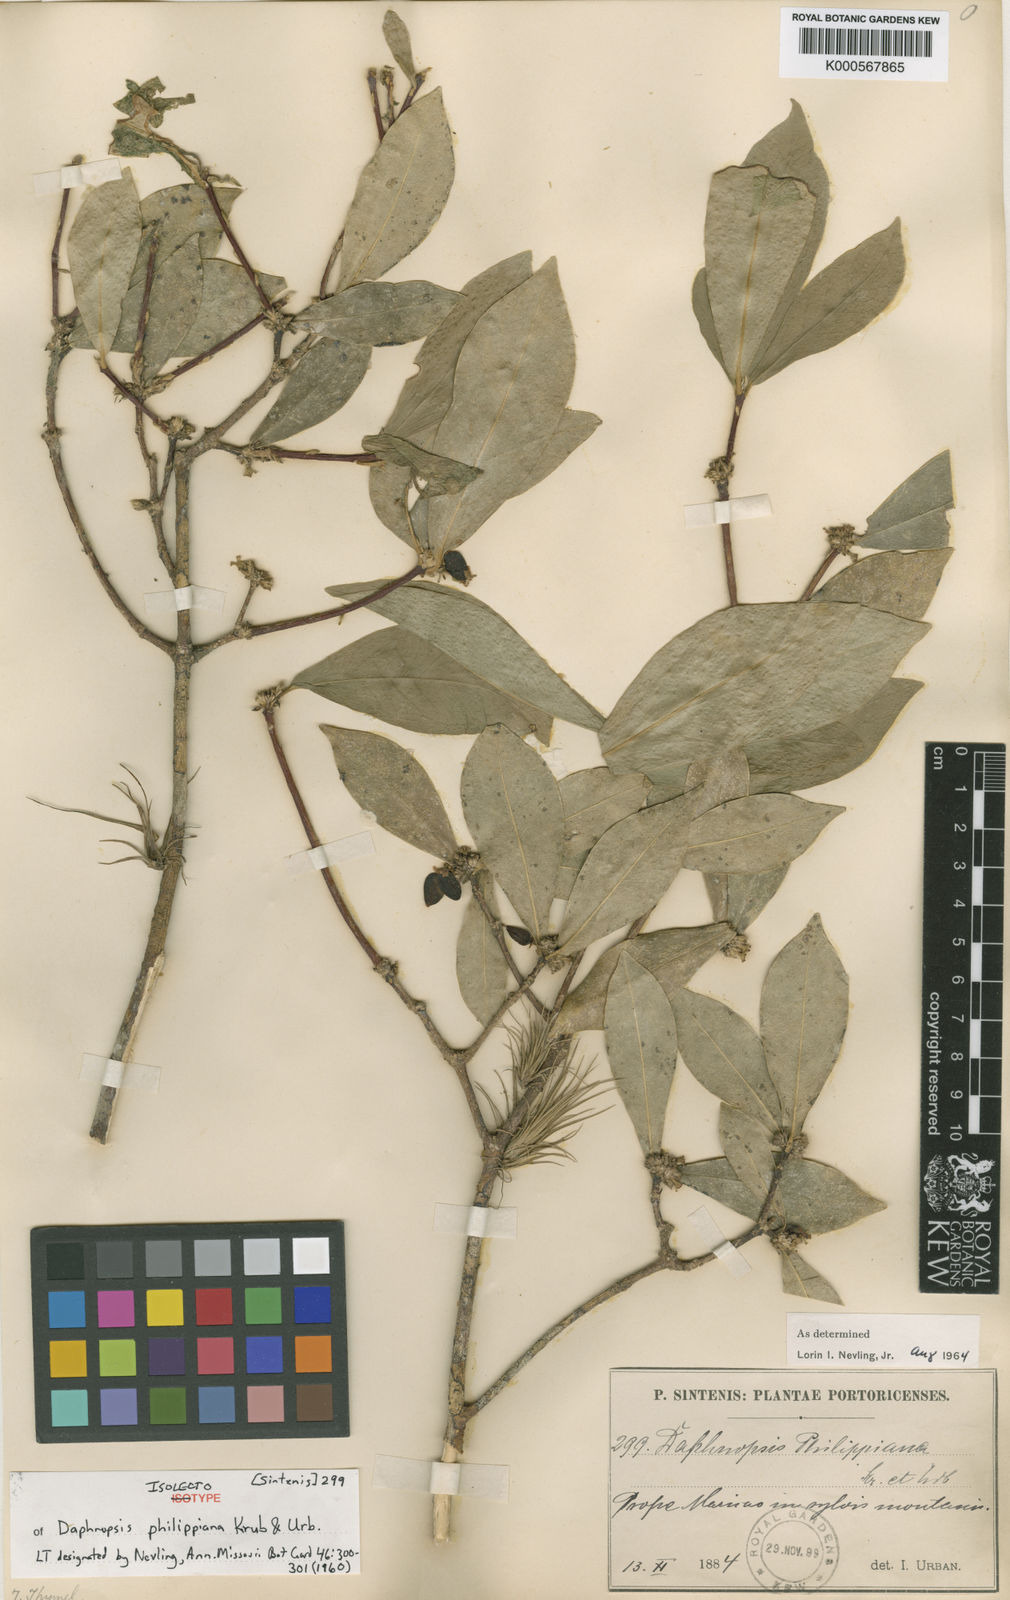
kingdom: Plantae
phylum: Tracheophyta
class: Magnoliopsida
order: Malvales
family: Thymelaeaceae
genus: Daphnopsis
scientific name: Daphnopsis philippiana
